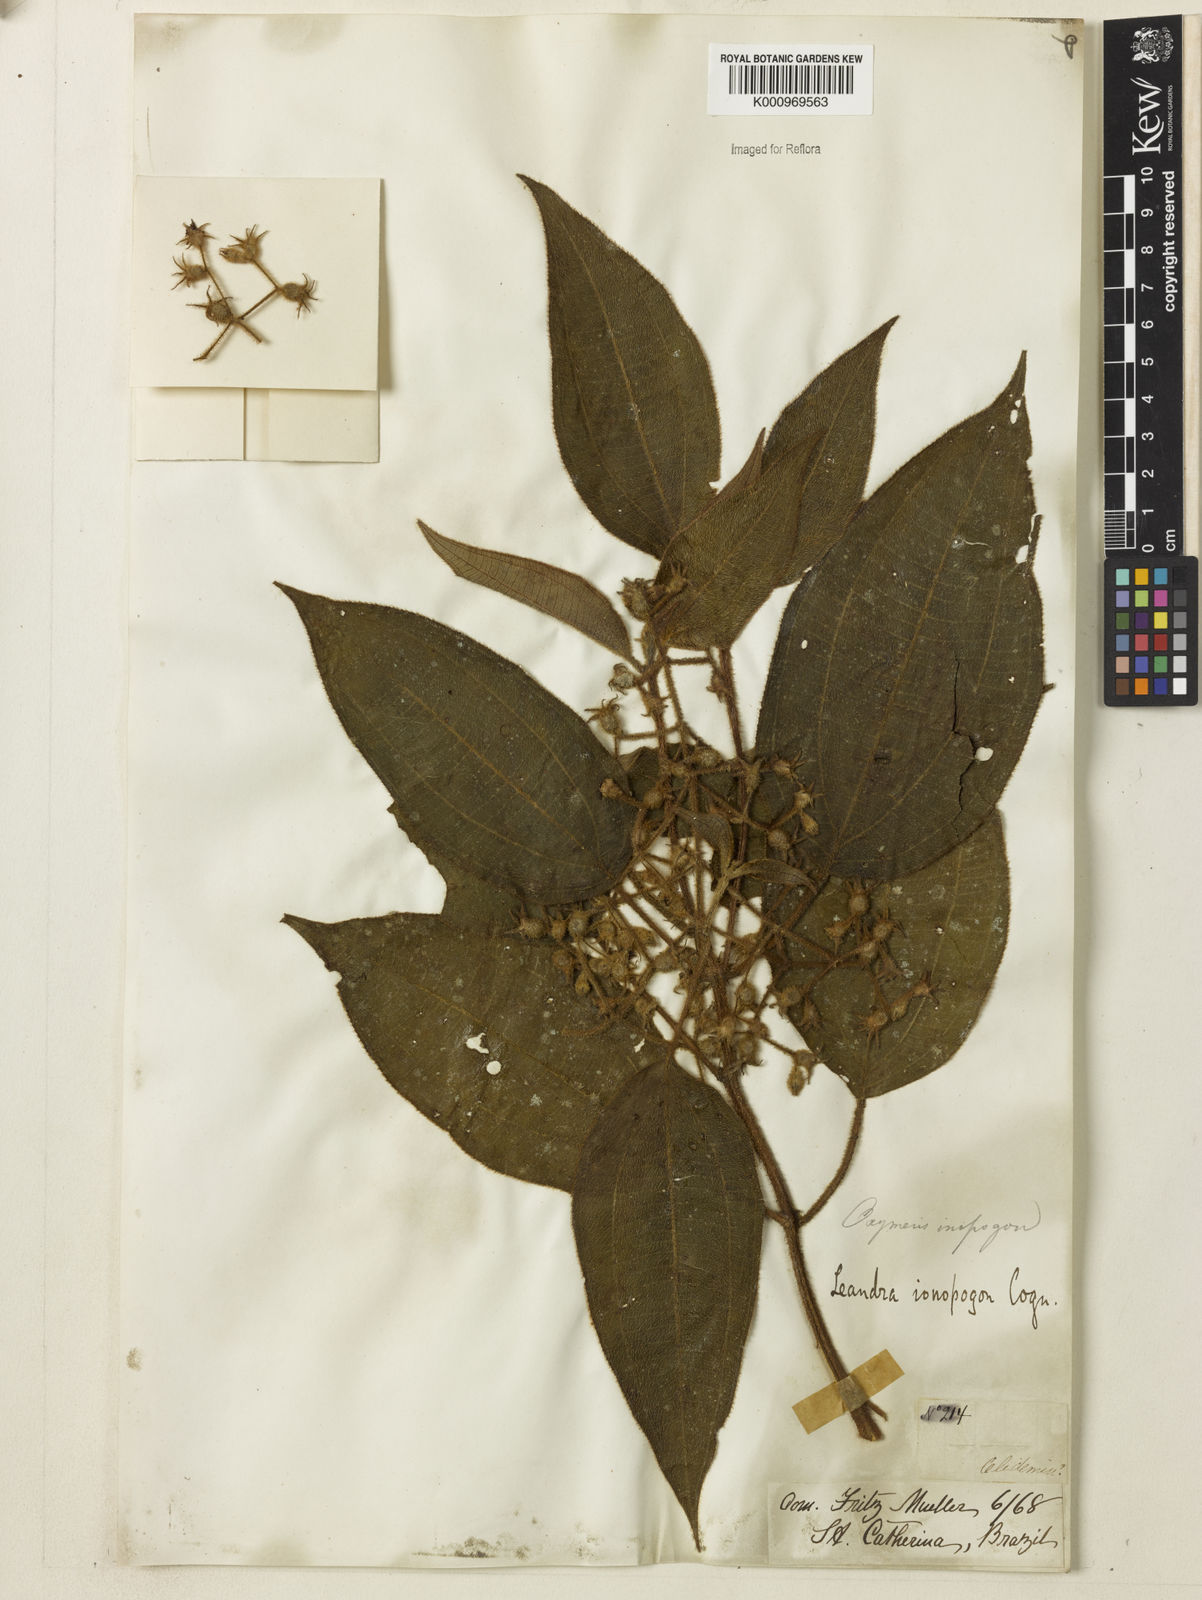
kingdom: Plantae
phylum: Tracheophyta
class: Magnoliopsida
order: Myrtales
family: Melastomataceae
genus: Miconia
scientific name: Miconia ionopogon
